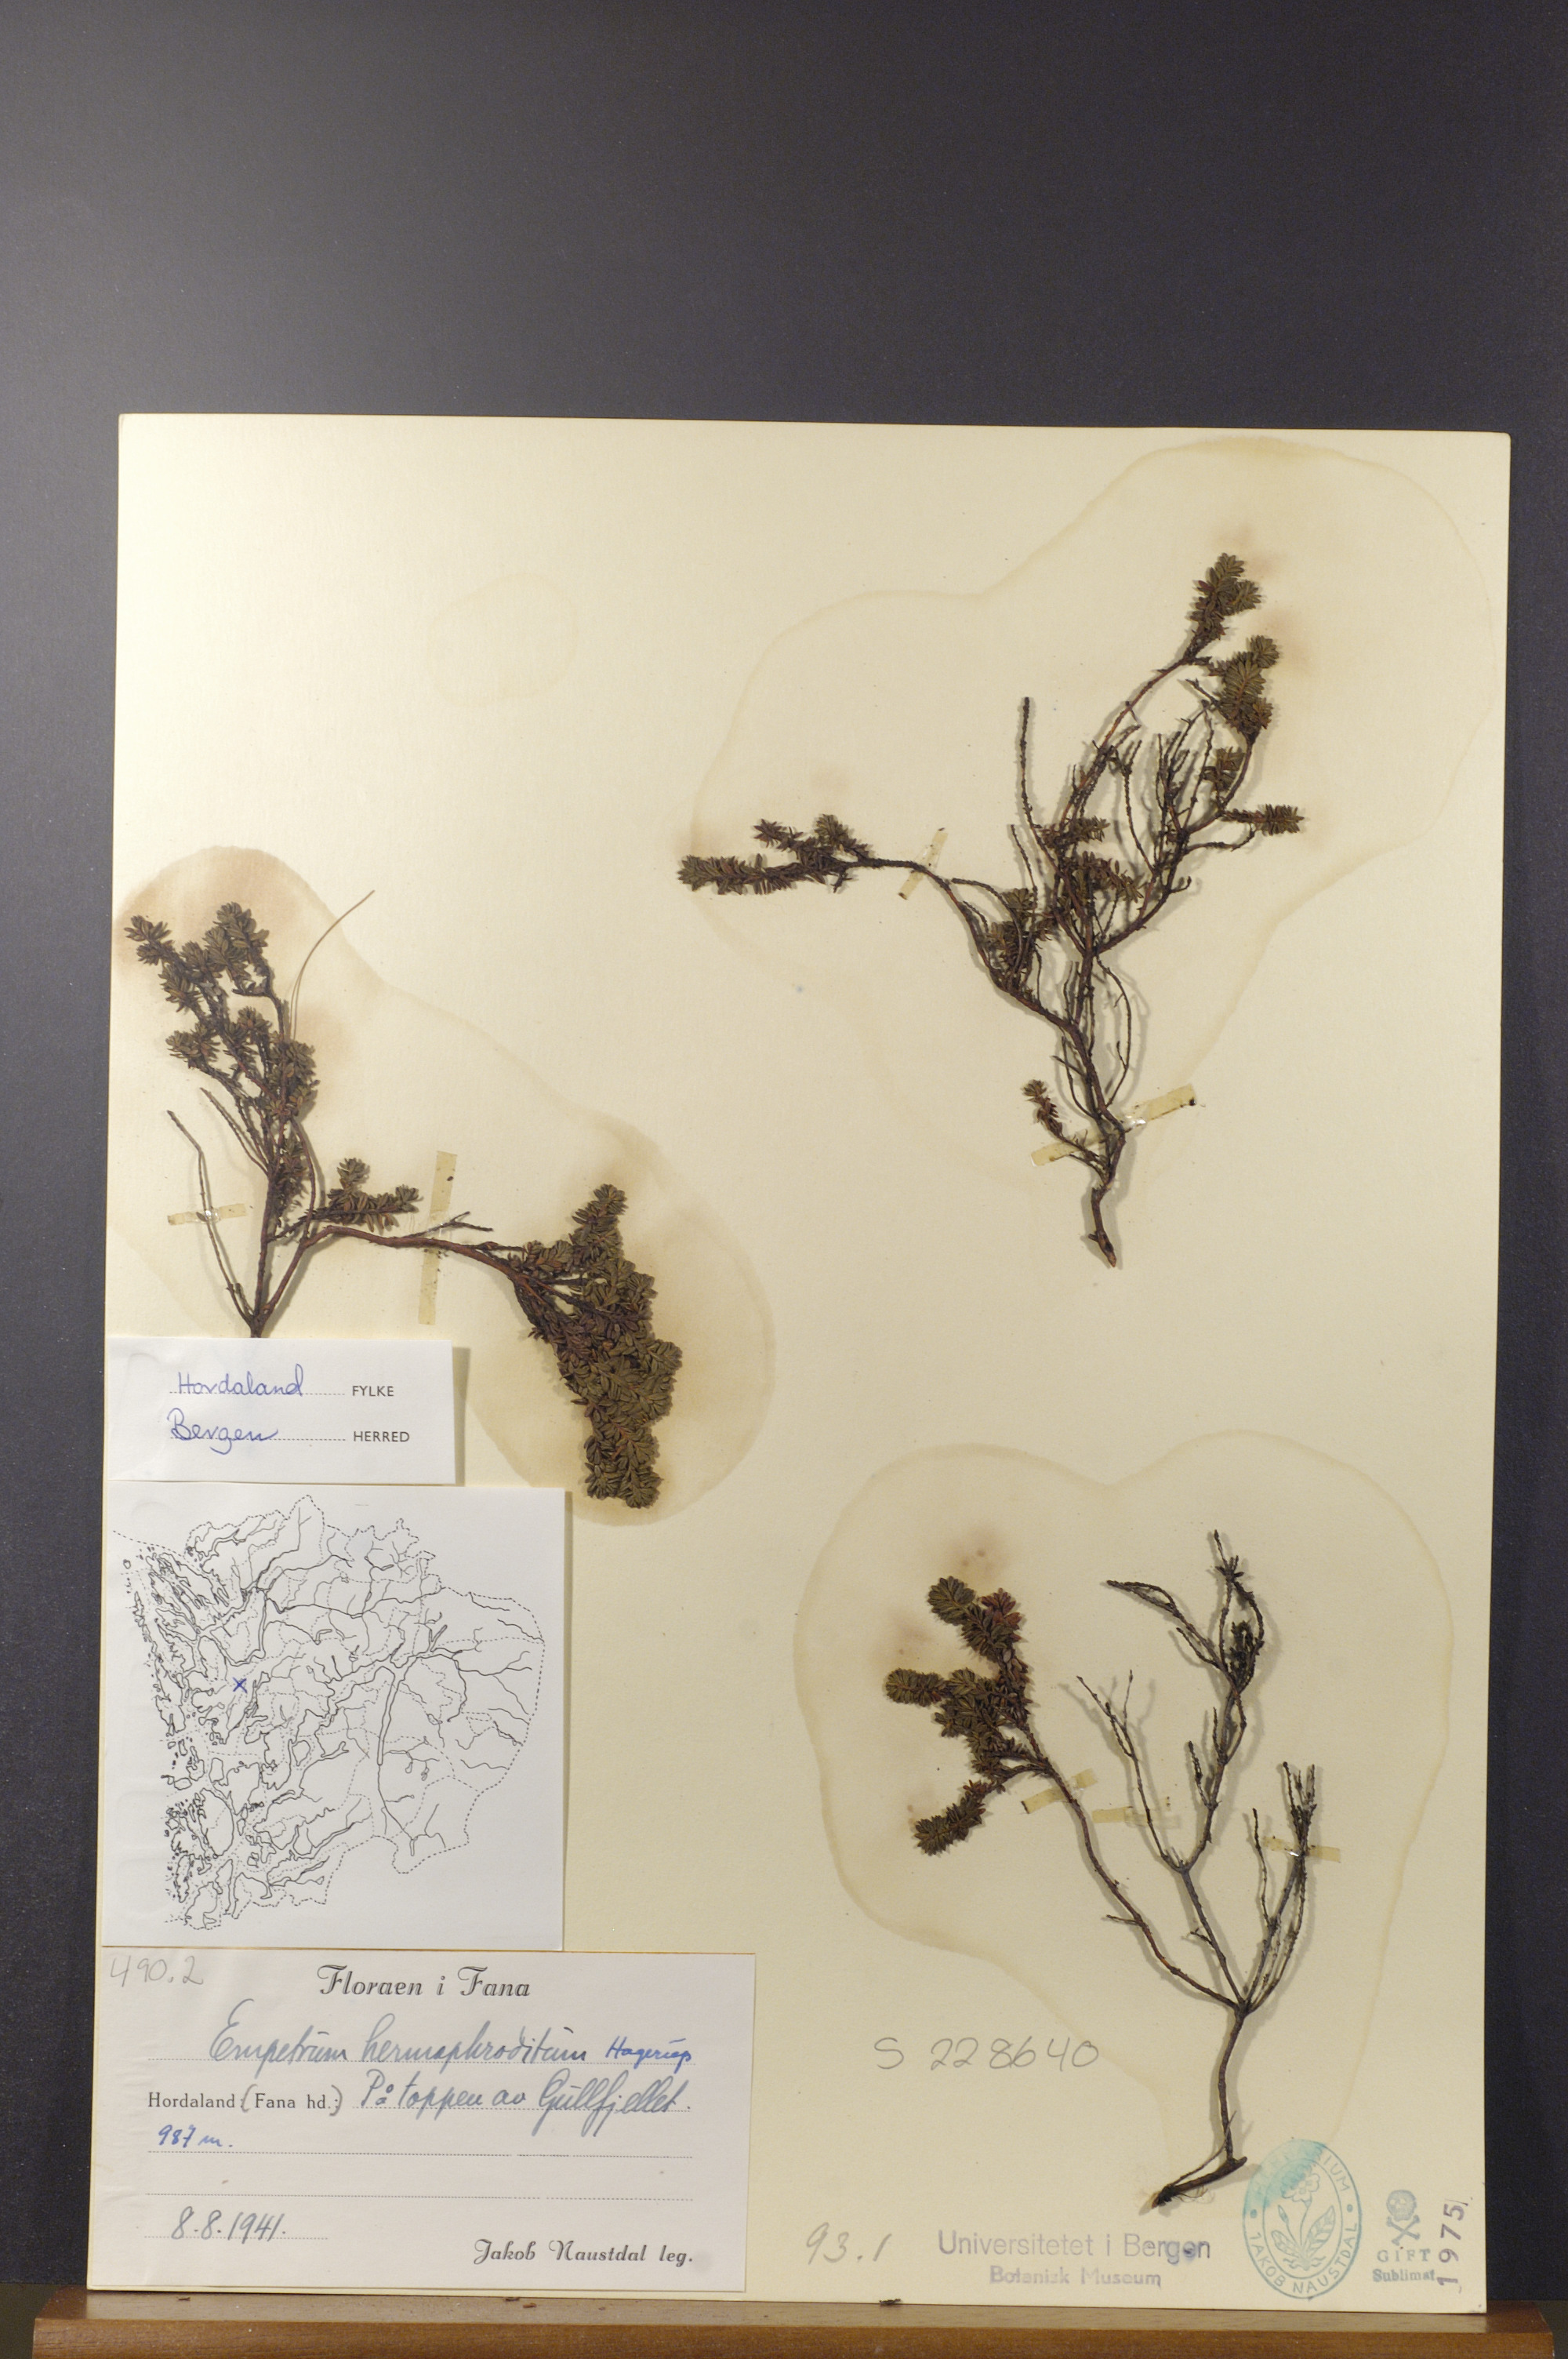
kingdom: Plantae
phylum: Tracheophyta
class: Magnoliopsida
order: Ericales
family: Ericaceae
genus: Empetrum
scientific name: Empetrum hermaphroditum
